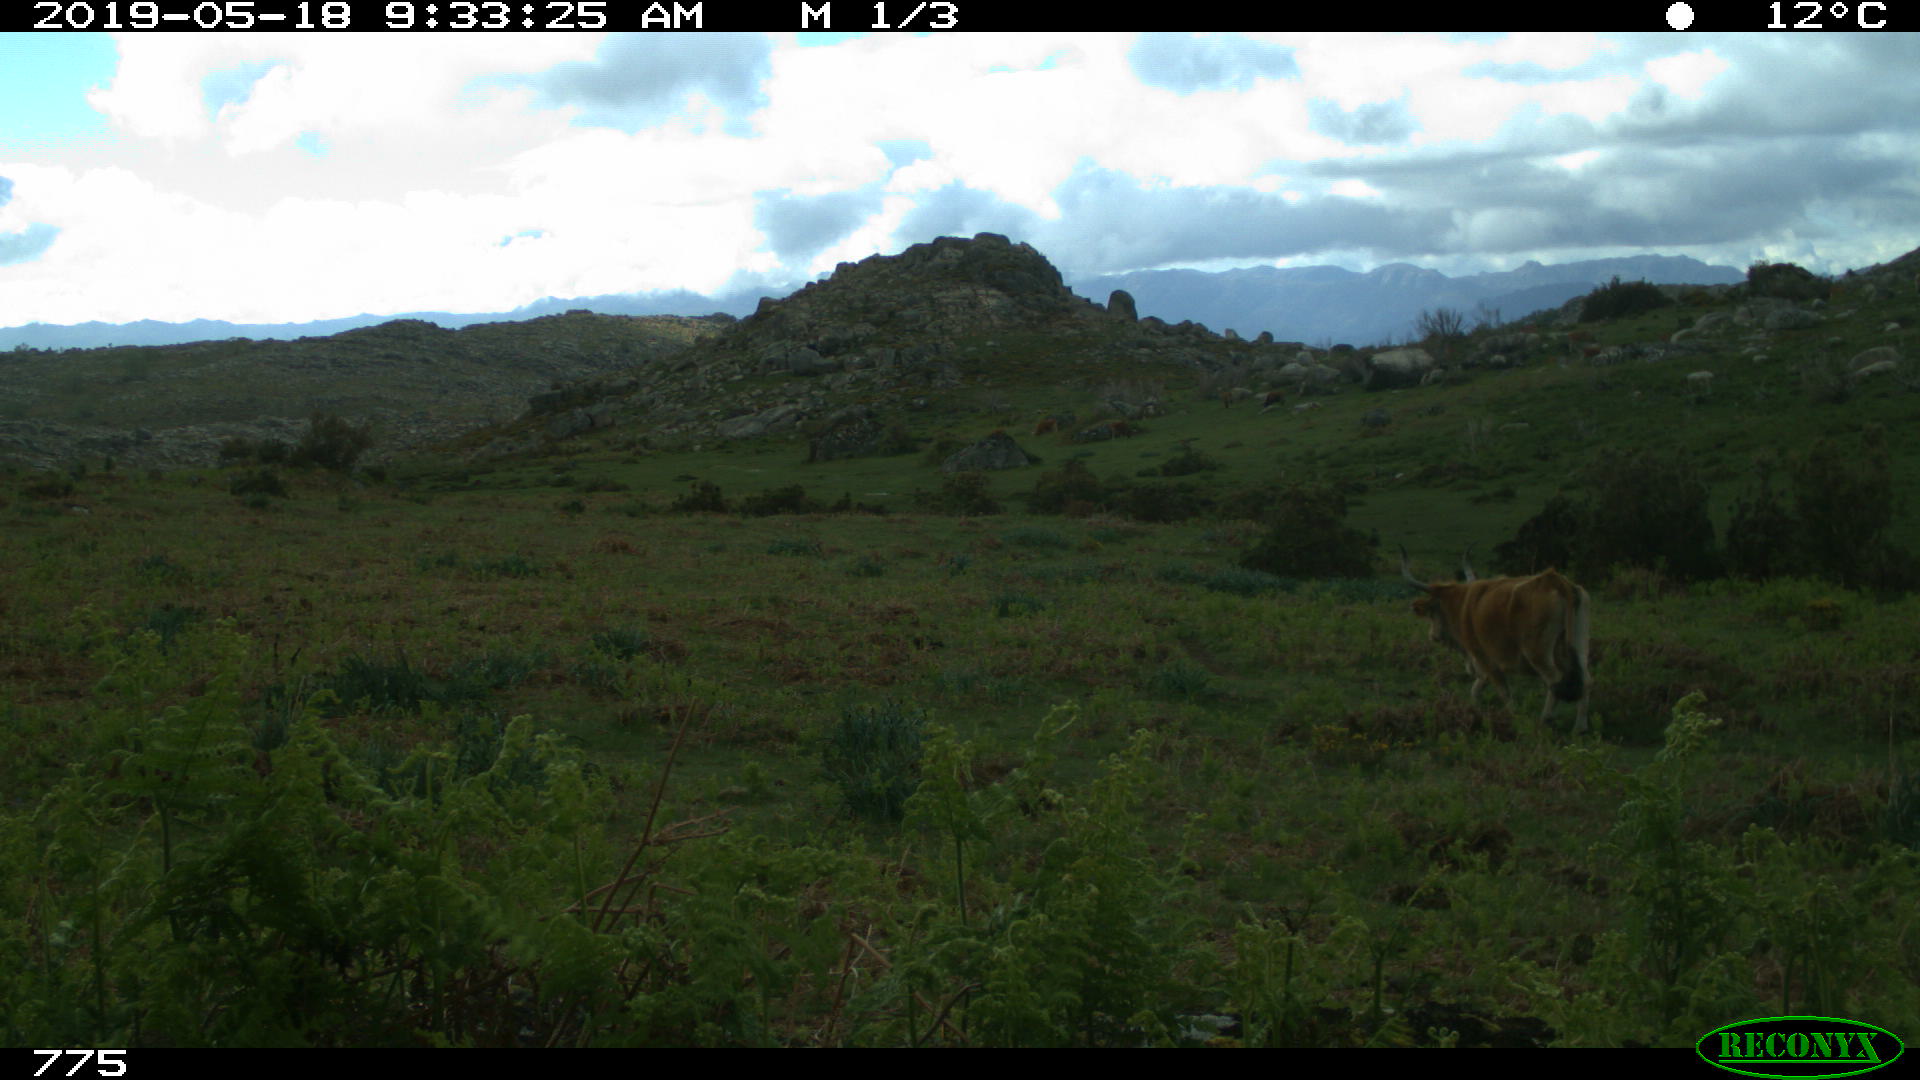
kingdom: Animalia
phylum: Chordata
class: Mammalia
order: Artiodactyla
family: Bovidae
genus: Bos
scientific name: Bos taurus
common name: Domesticated cattle
